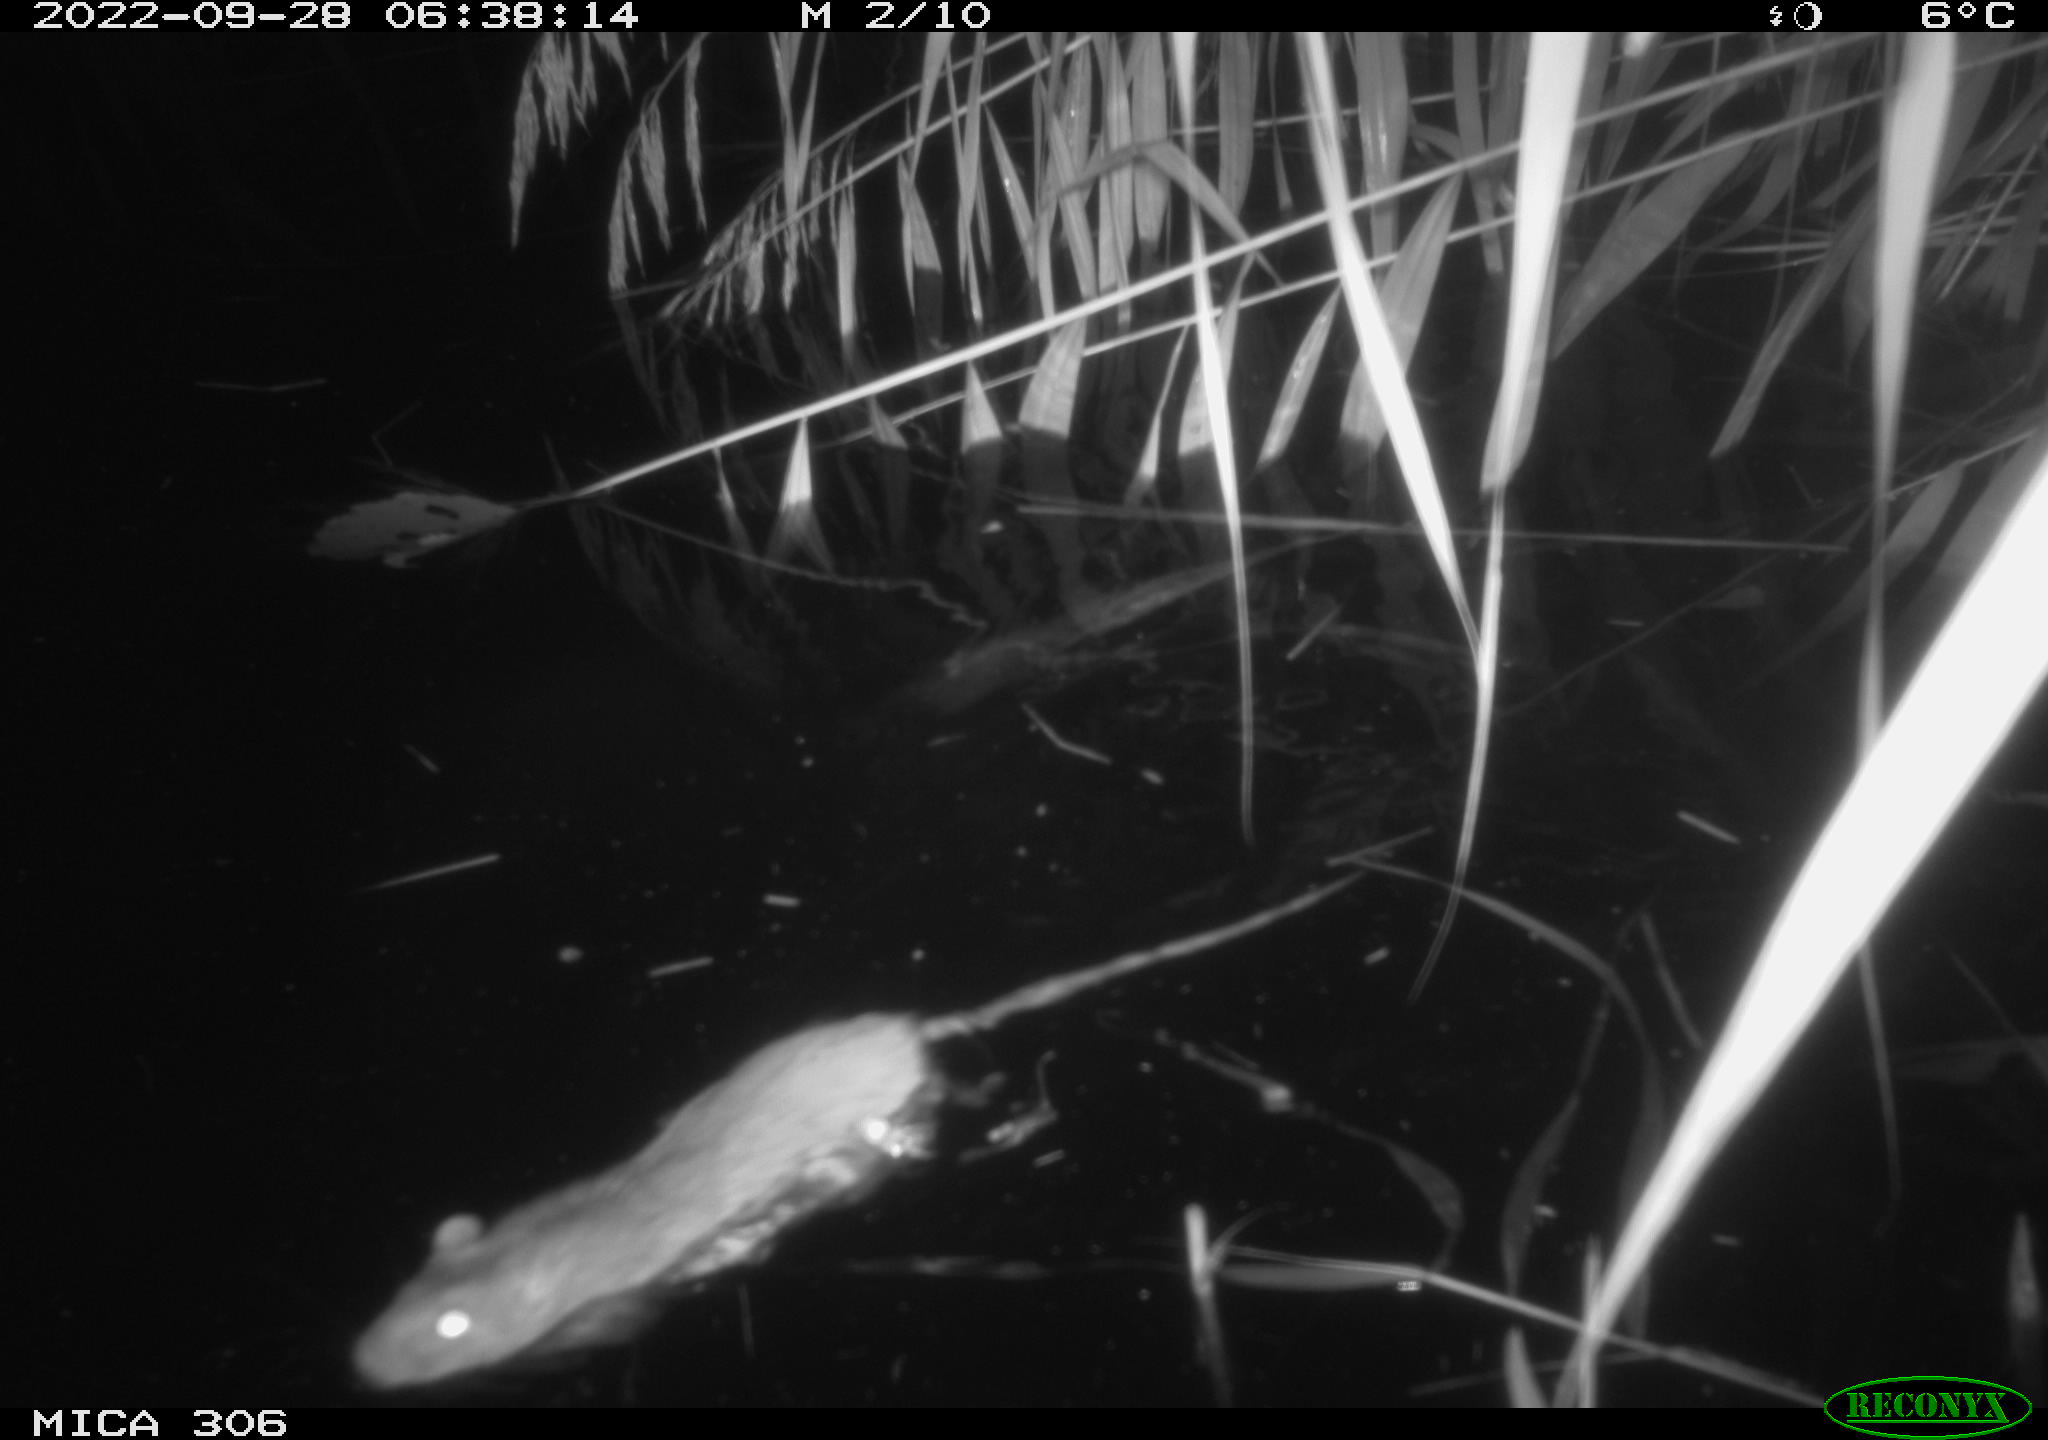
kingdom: Animalia
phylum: Chordata
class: Mammalia
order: Rodentia
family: Muridae
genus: Rattus
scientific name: Rattus norvegicus
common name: Brown rat
